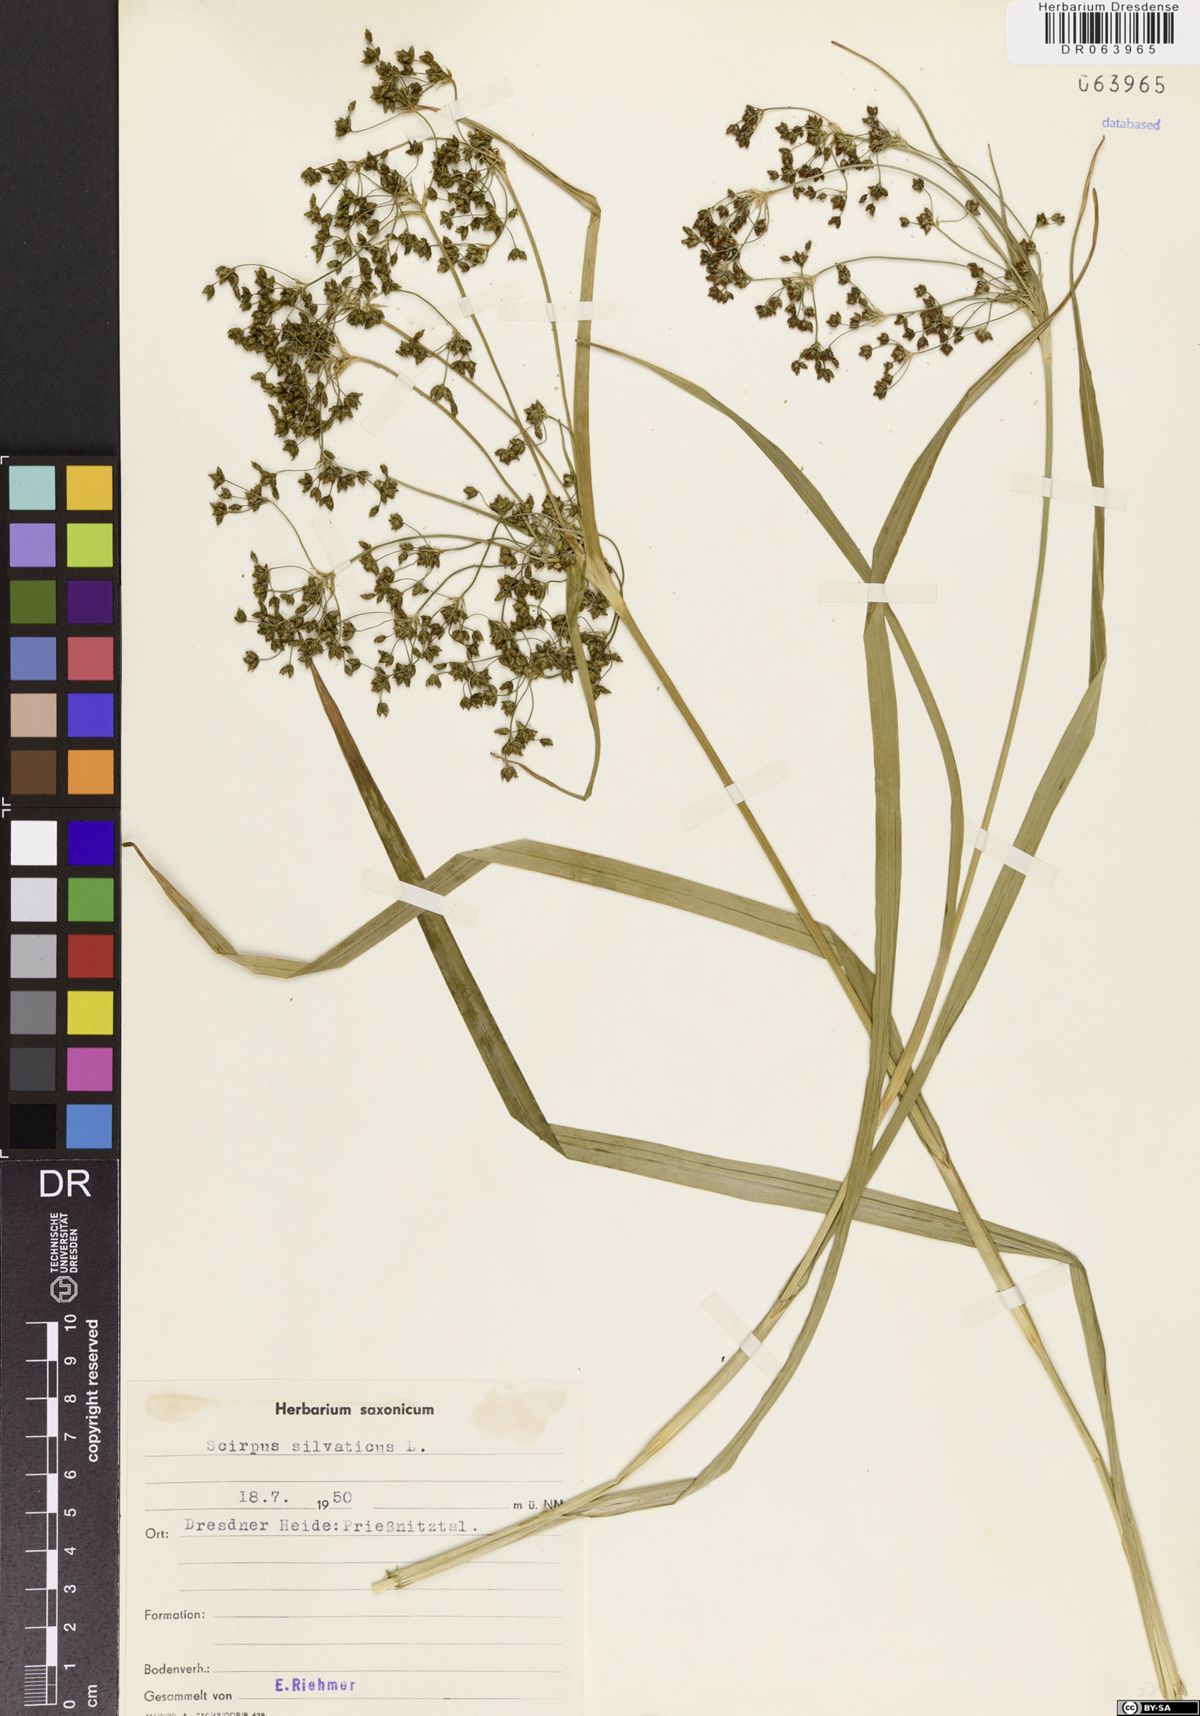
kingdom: Plantae
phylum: Tracheophyta
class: Liliopsida
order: Poales
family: Cyperaceae
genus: Scirpus
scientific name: Scirpus sylvaticus
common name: Wood club-rush
